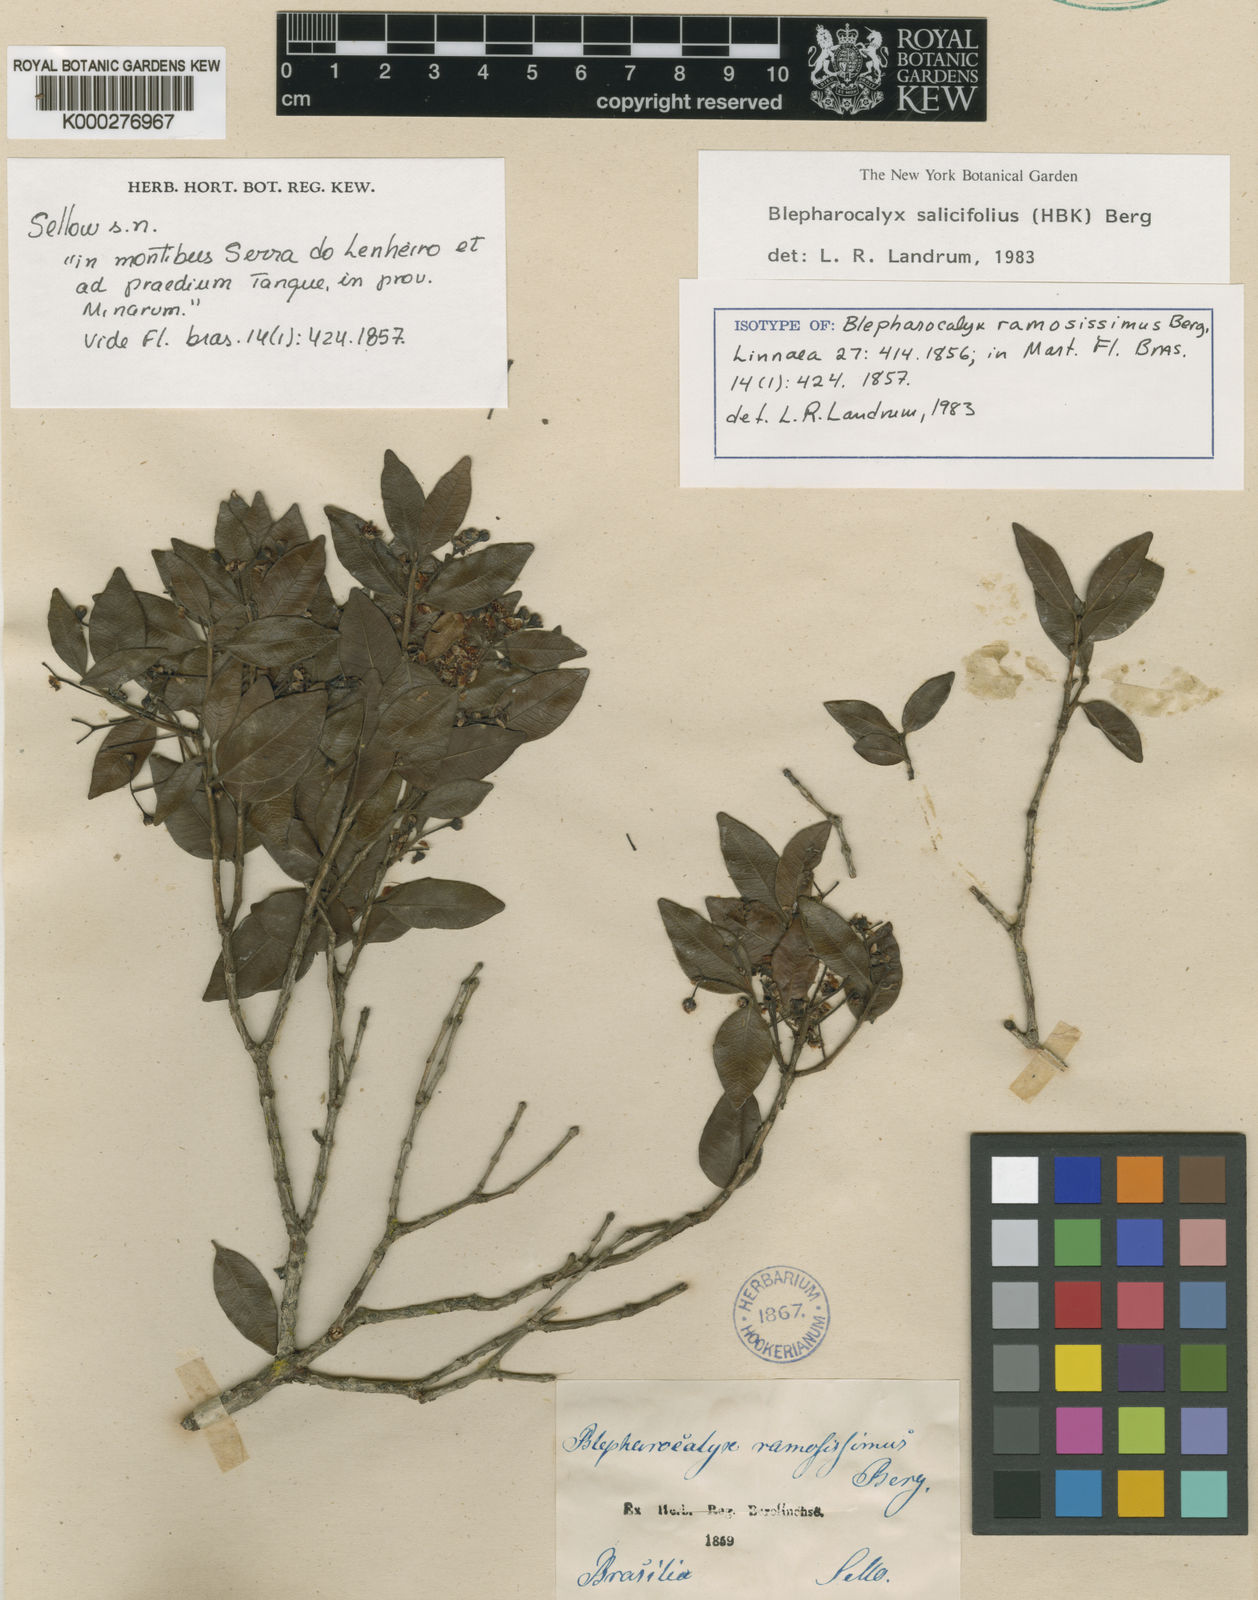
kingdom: Plantae
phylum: Tracheophyta
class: Magnoliopsida
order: Myrtales
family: Myrtaceae
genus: Blepharocalyx
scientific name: Blepharocalyx salicifolius
